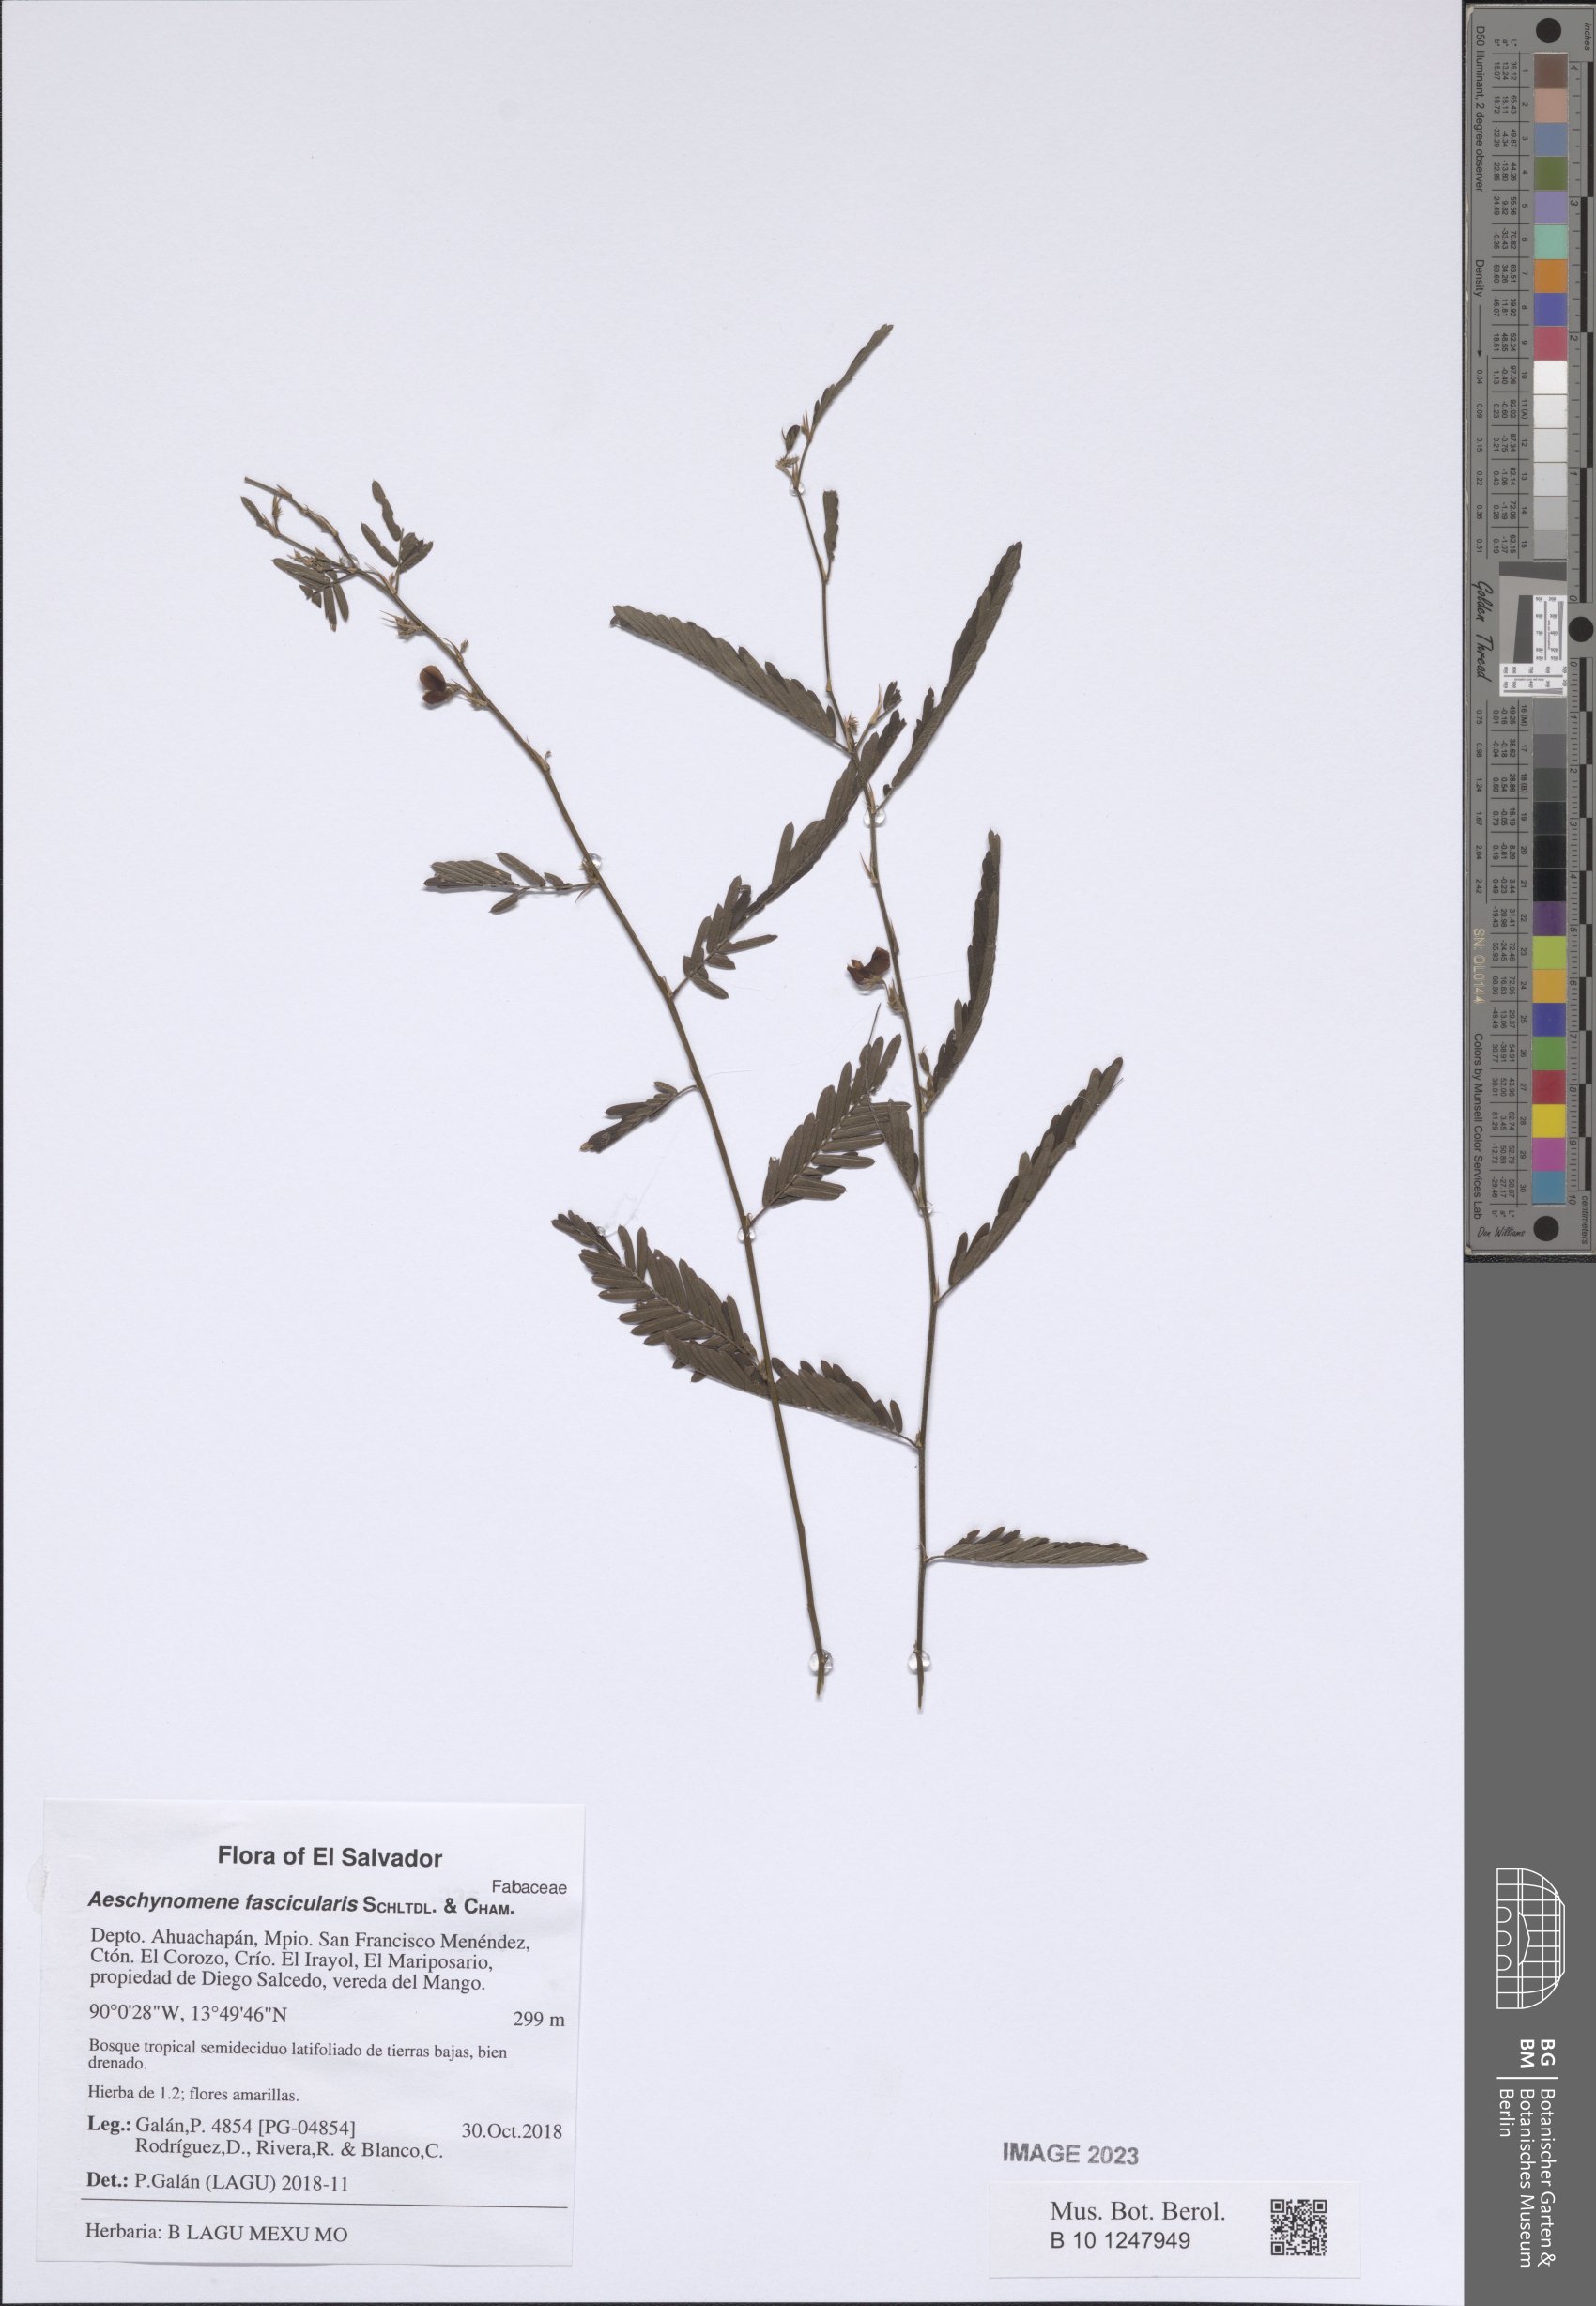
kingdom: Plantae
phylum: Tracheophyta
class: Magnoliopsida
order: Fabales
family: Fabaceae
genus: Ctenodon
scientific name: Ctenodon fascicularis
